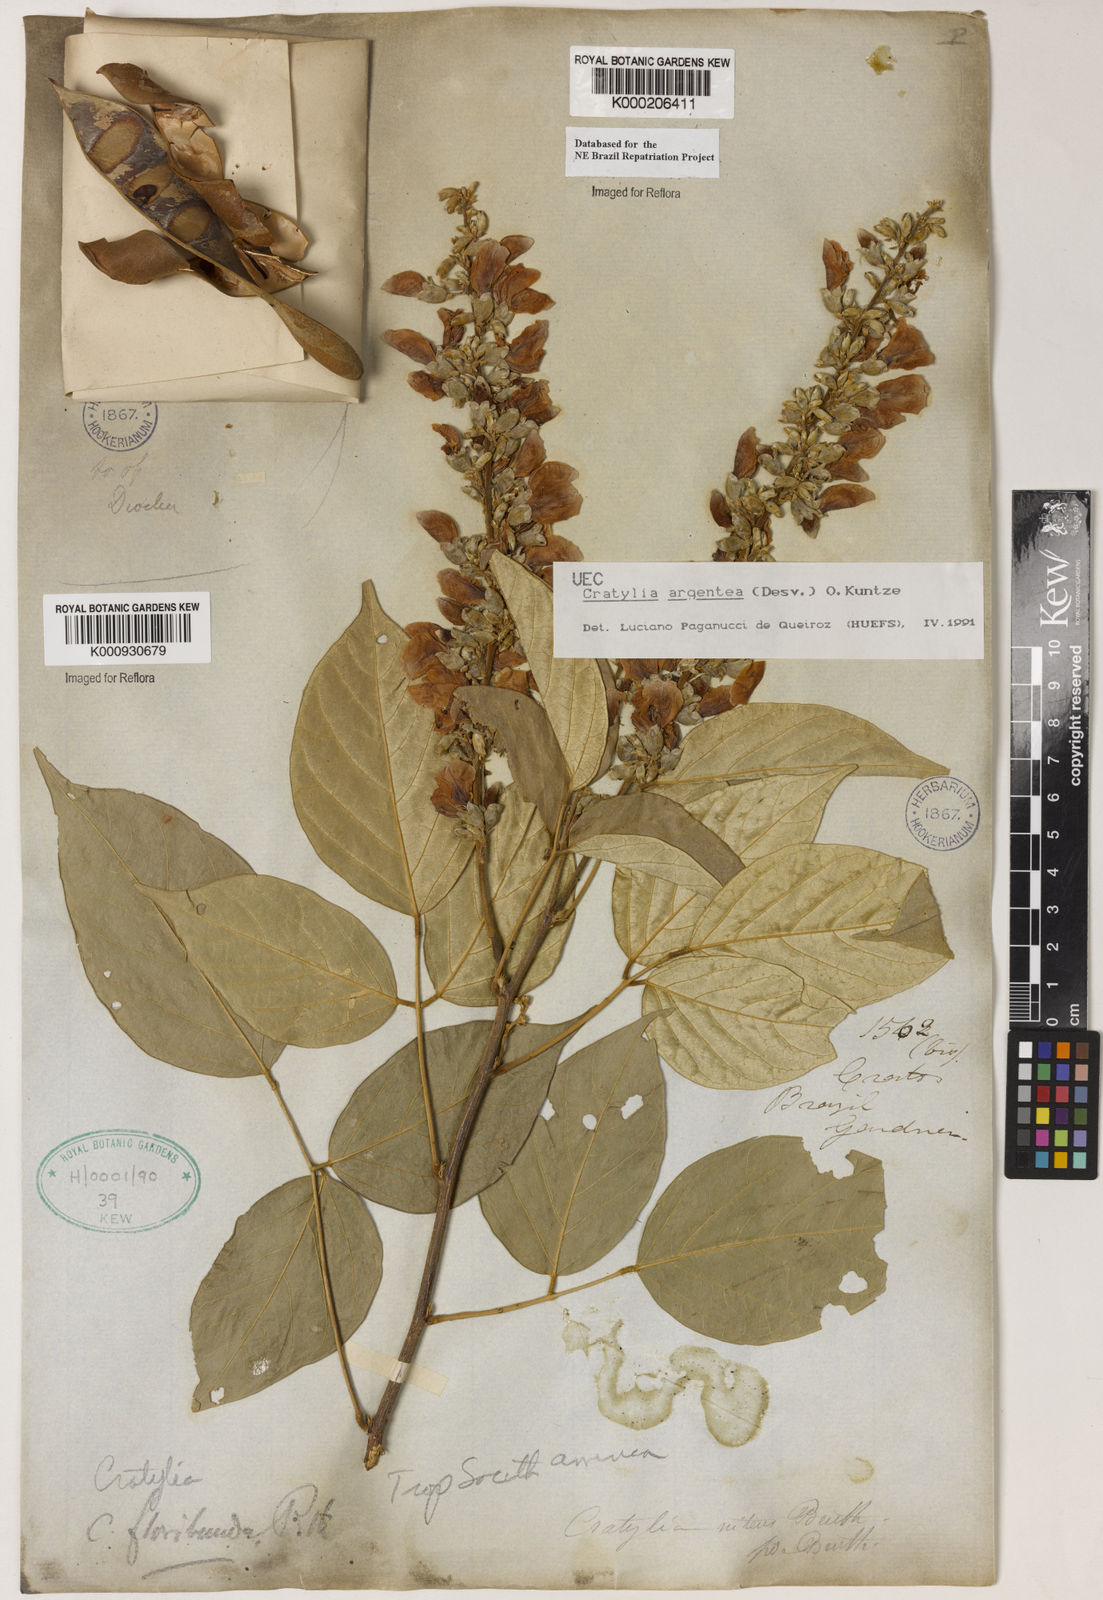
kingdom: Plantae
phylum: Tracheophyta
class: Magnoliopsida
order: Fabales
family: Fabaceae
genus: Cratylia
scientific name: Cratylia argentea
